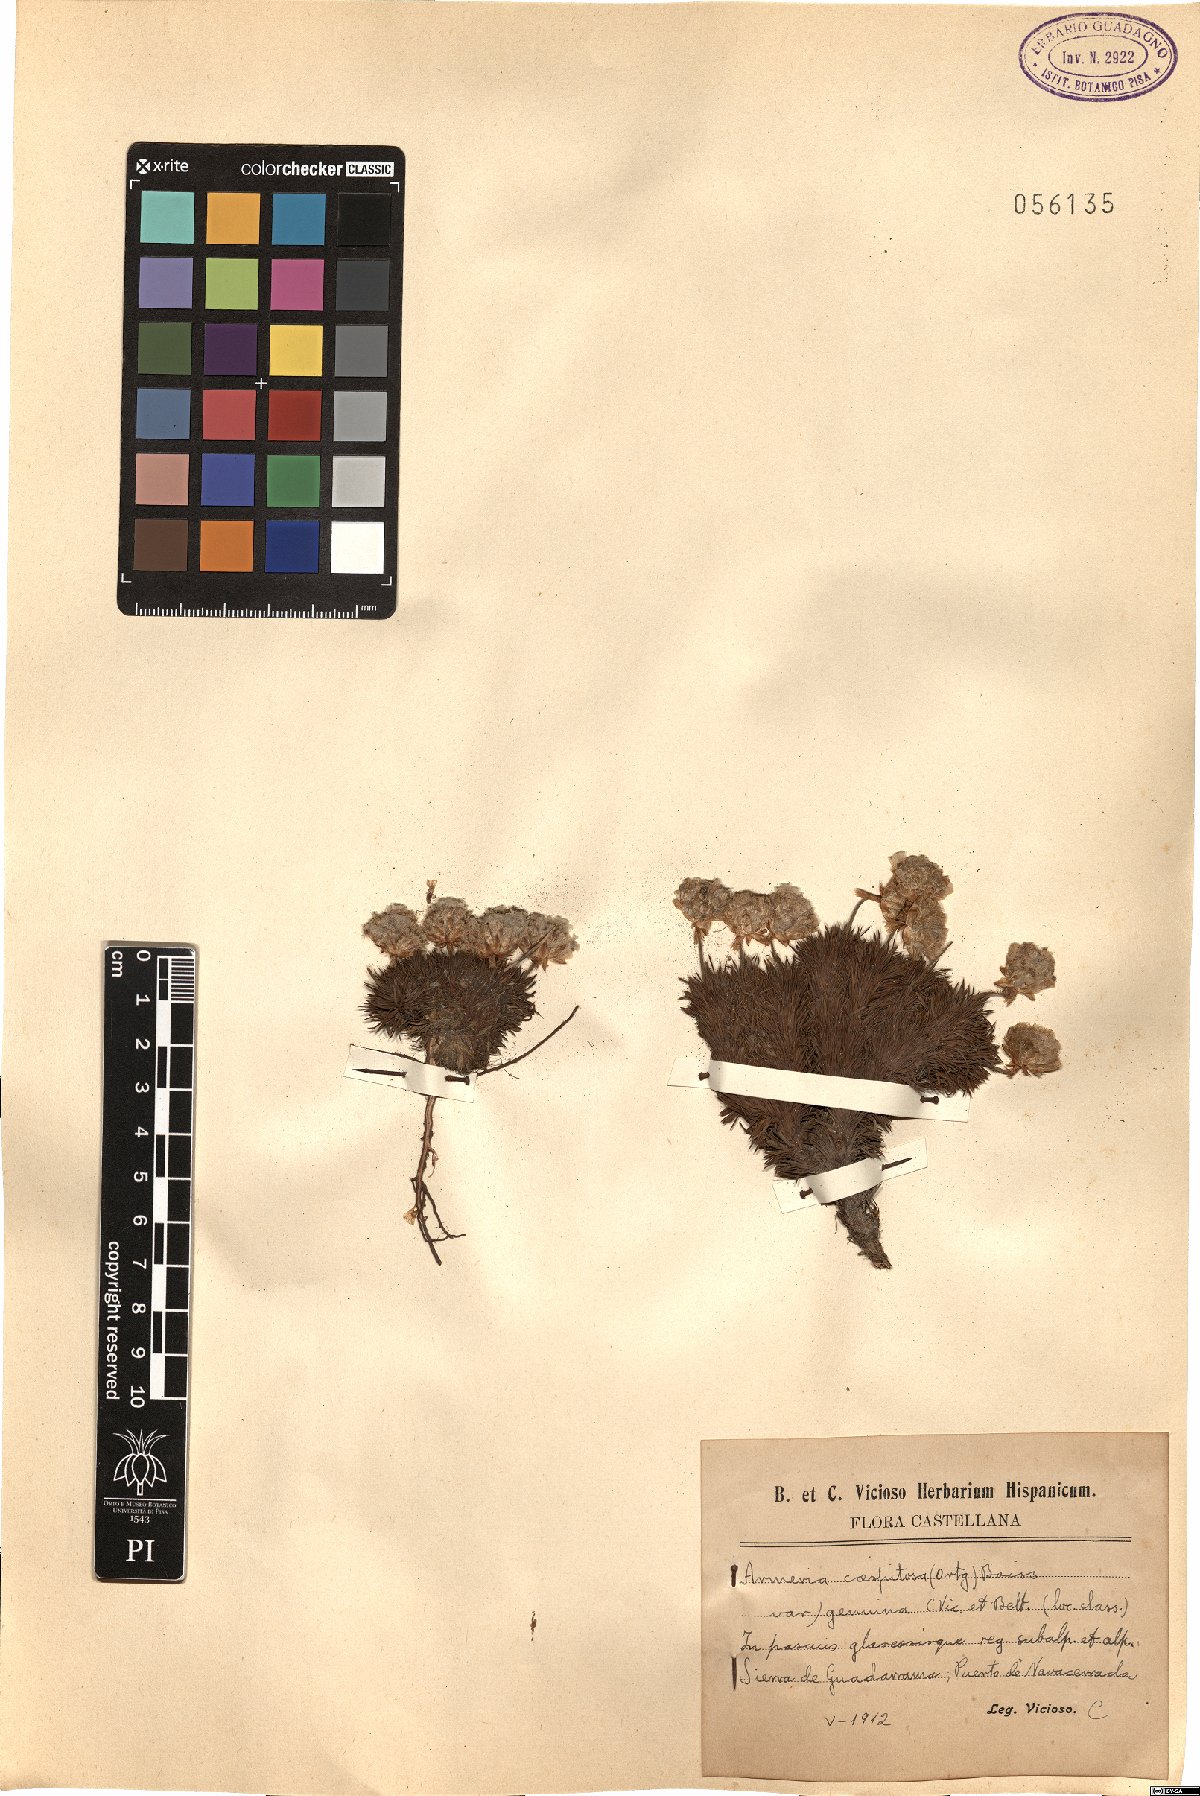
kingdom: Plantae
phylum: Tracheophyta
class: Magnoliopsida
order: Caryophyllales
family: Plumbaginaceae
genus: Armeria
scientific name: Armeria caespitosa
